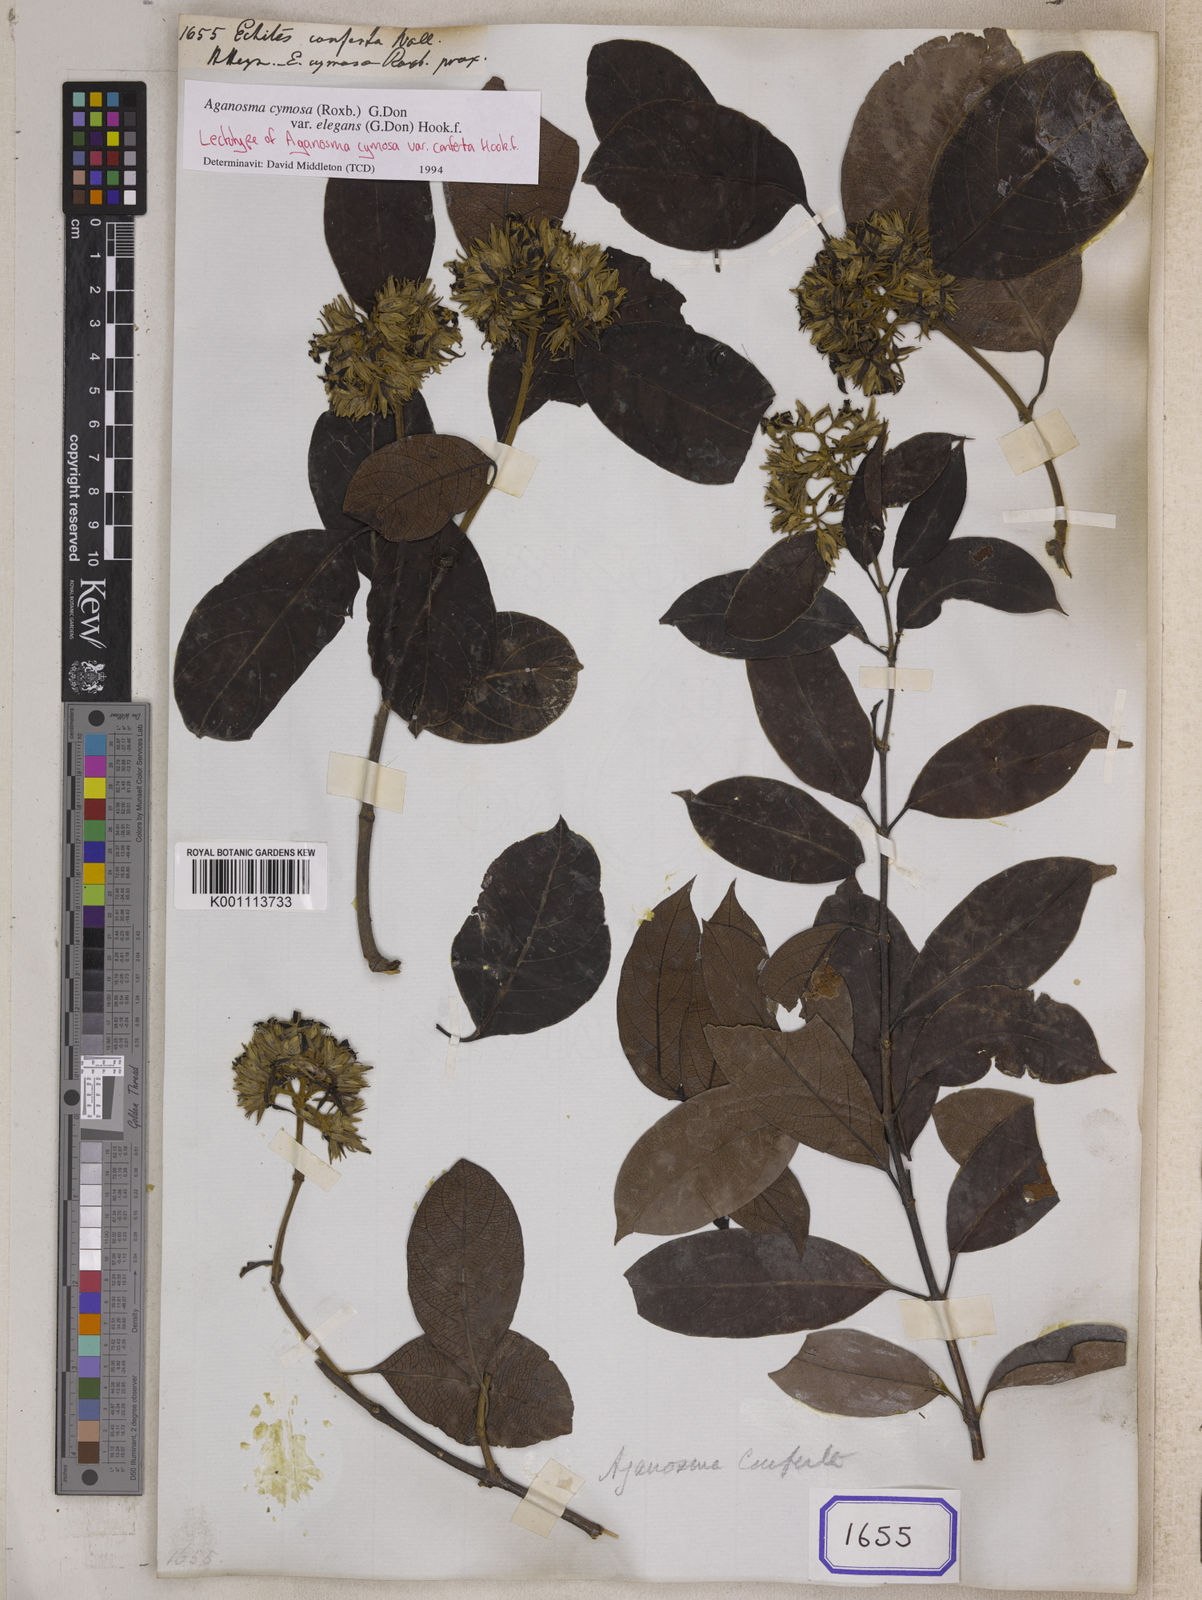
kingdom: Plantae
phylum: Tracheophyta
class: Magnoliopsida
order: Gentianales
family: Apocynaceae
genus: Aganosma
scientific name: Aganosma cymosa
